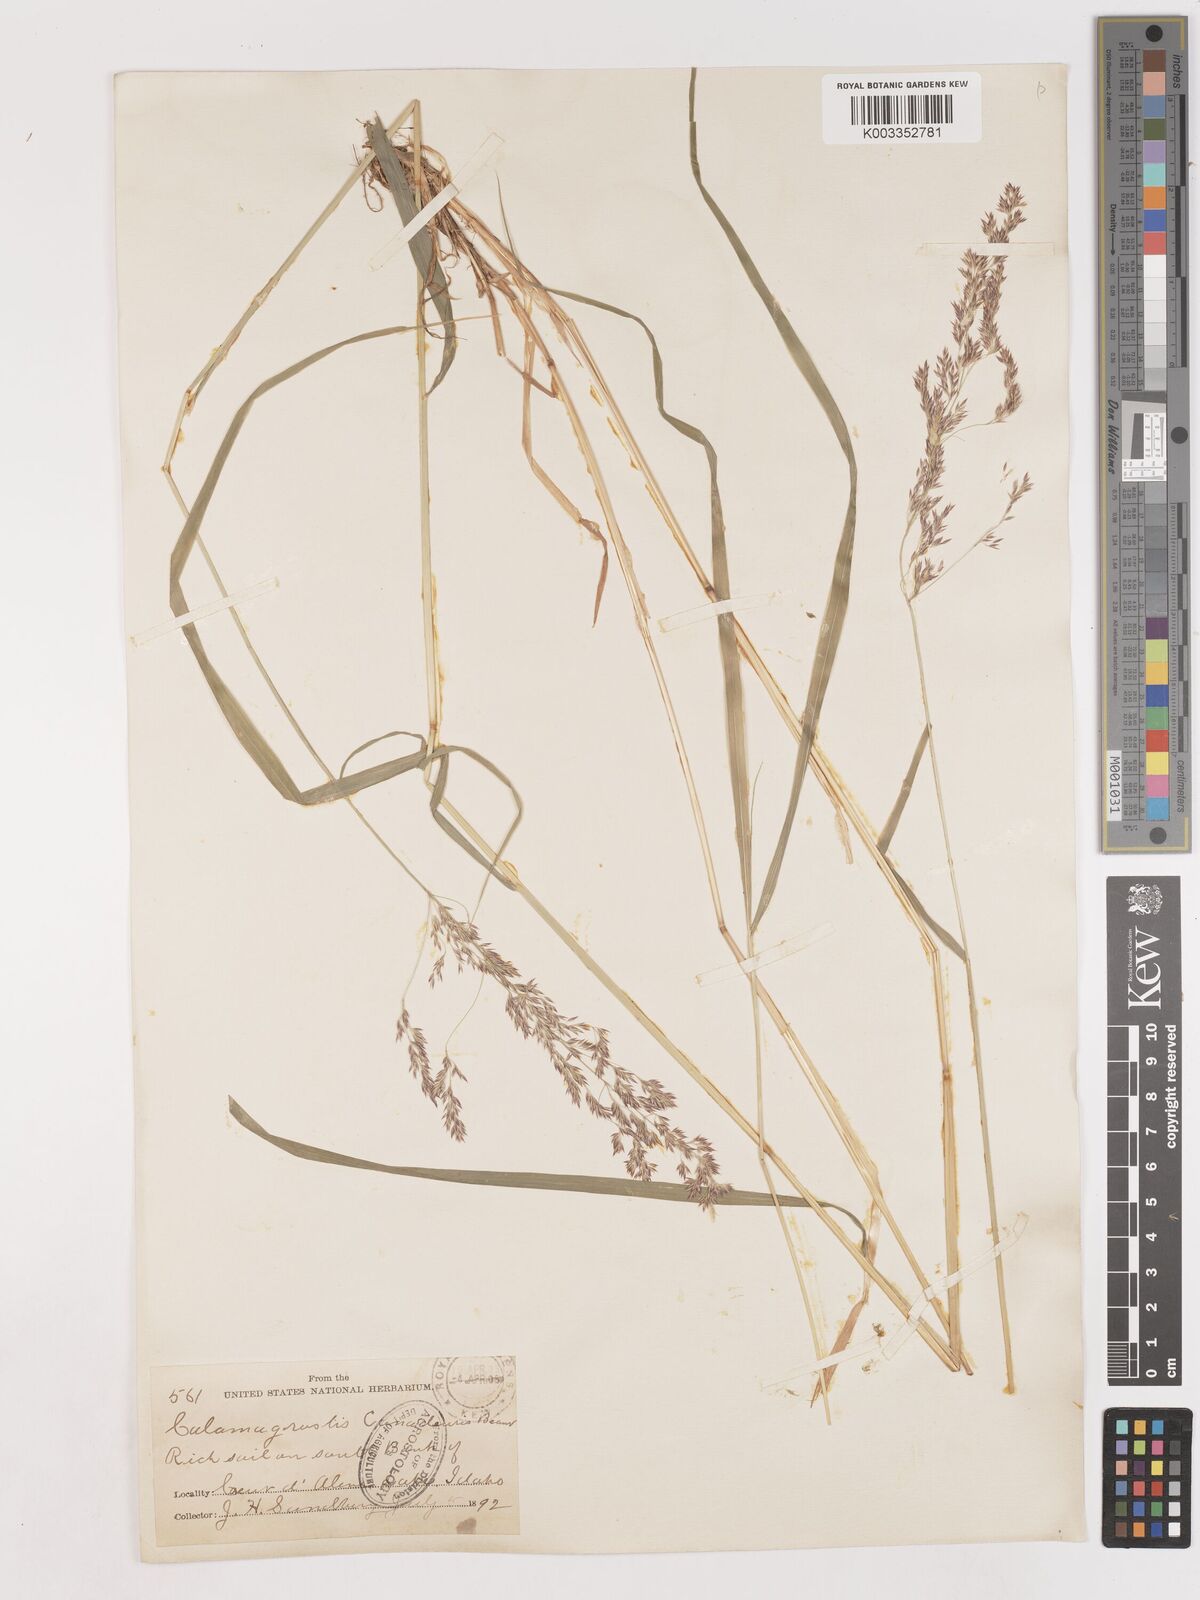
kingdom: Plantae
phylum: Tracheophyta
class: Liliopsida
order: Poales
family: Poaceae
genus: Calamagrostis
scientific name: Calamagrostis canadensis
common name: Canada bluejoint
